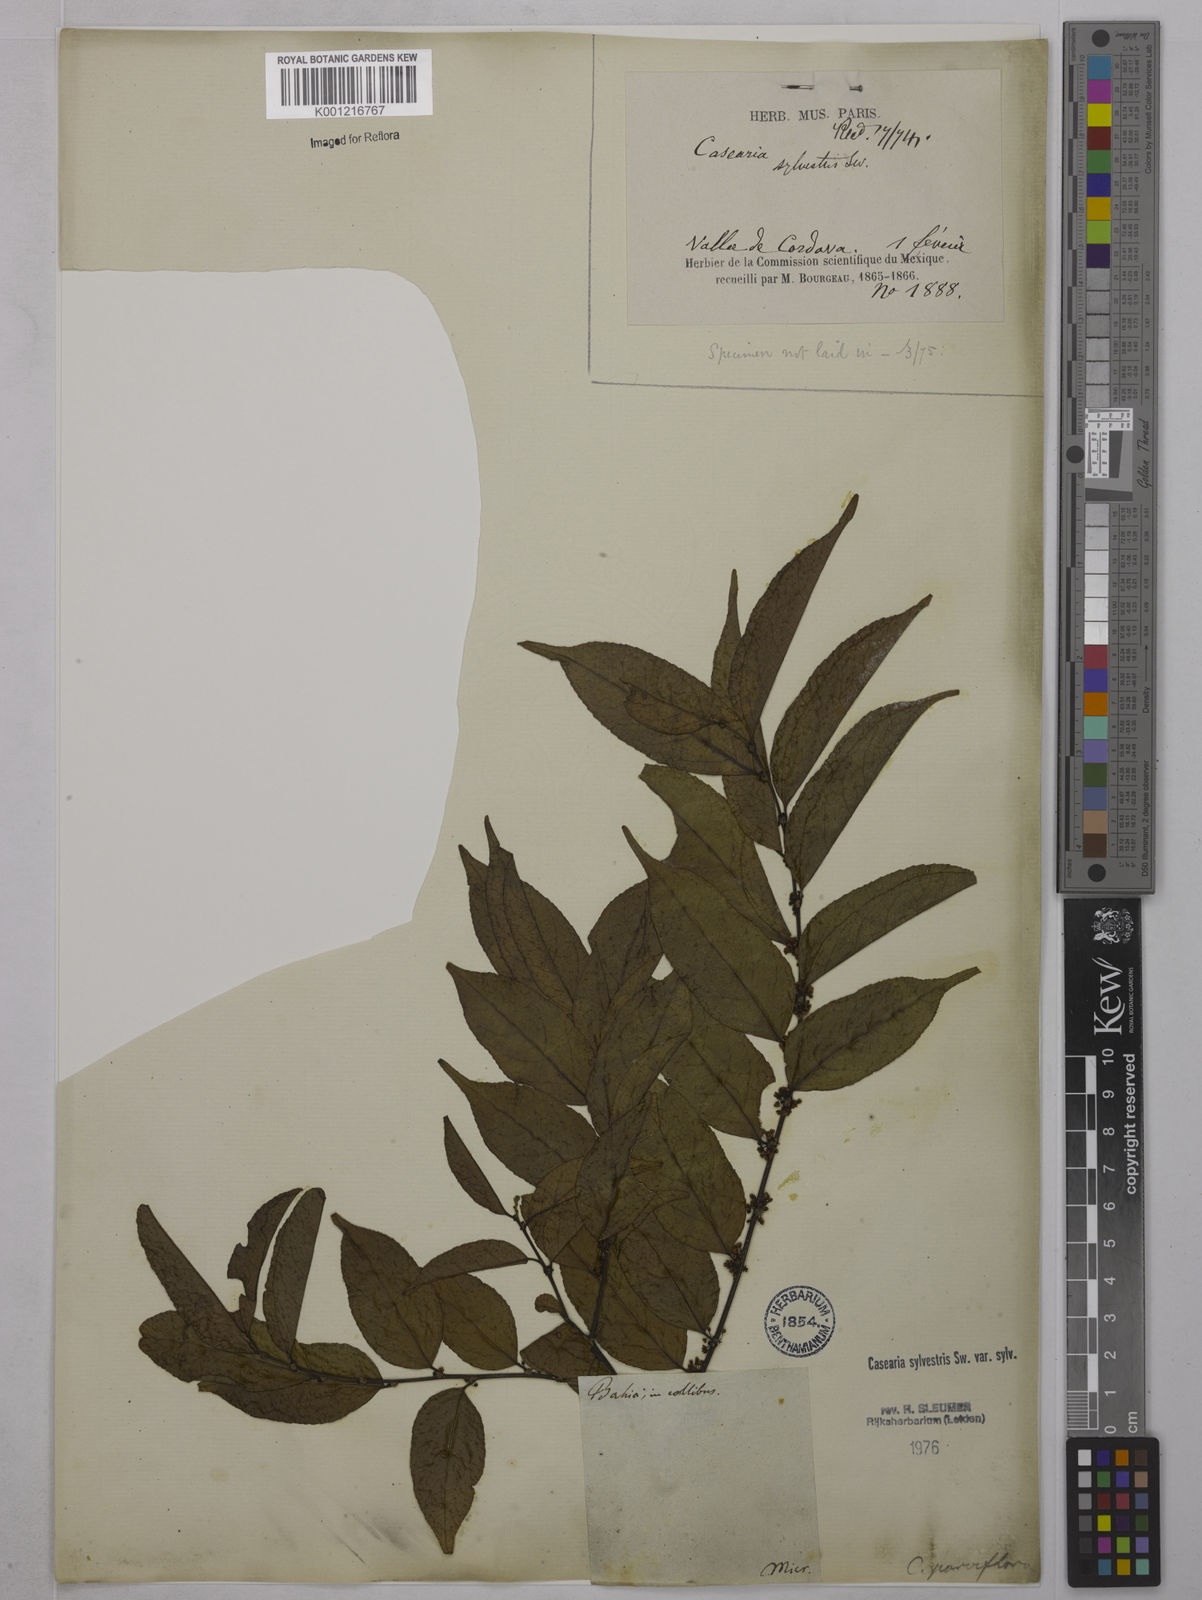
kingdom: Plantae
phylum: Tracheophyta
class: Magnoliopsida
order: Malpighiales
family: Salicaceae
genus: Casearia
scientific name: Casearia sylvestris
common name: Wild sage
